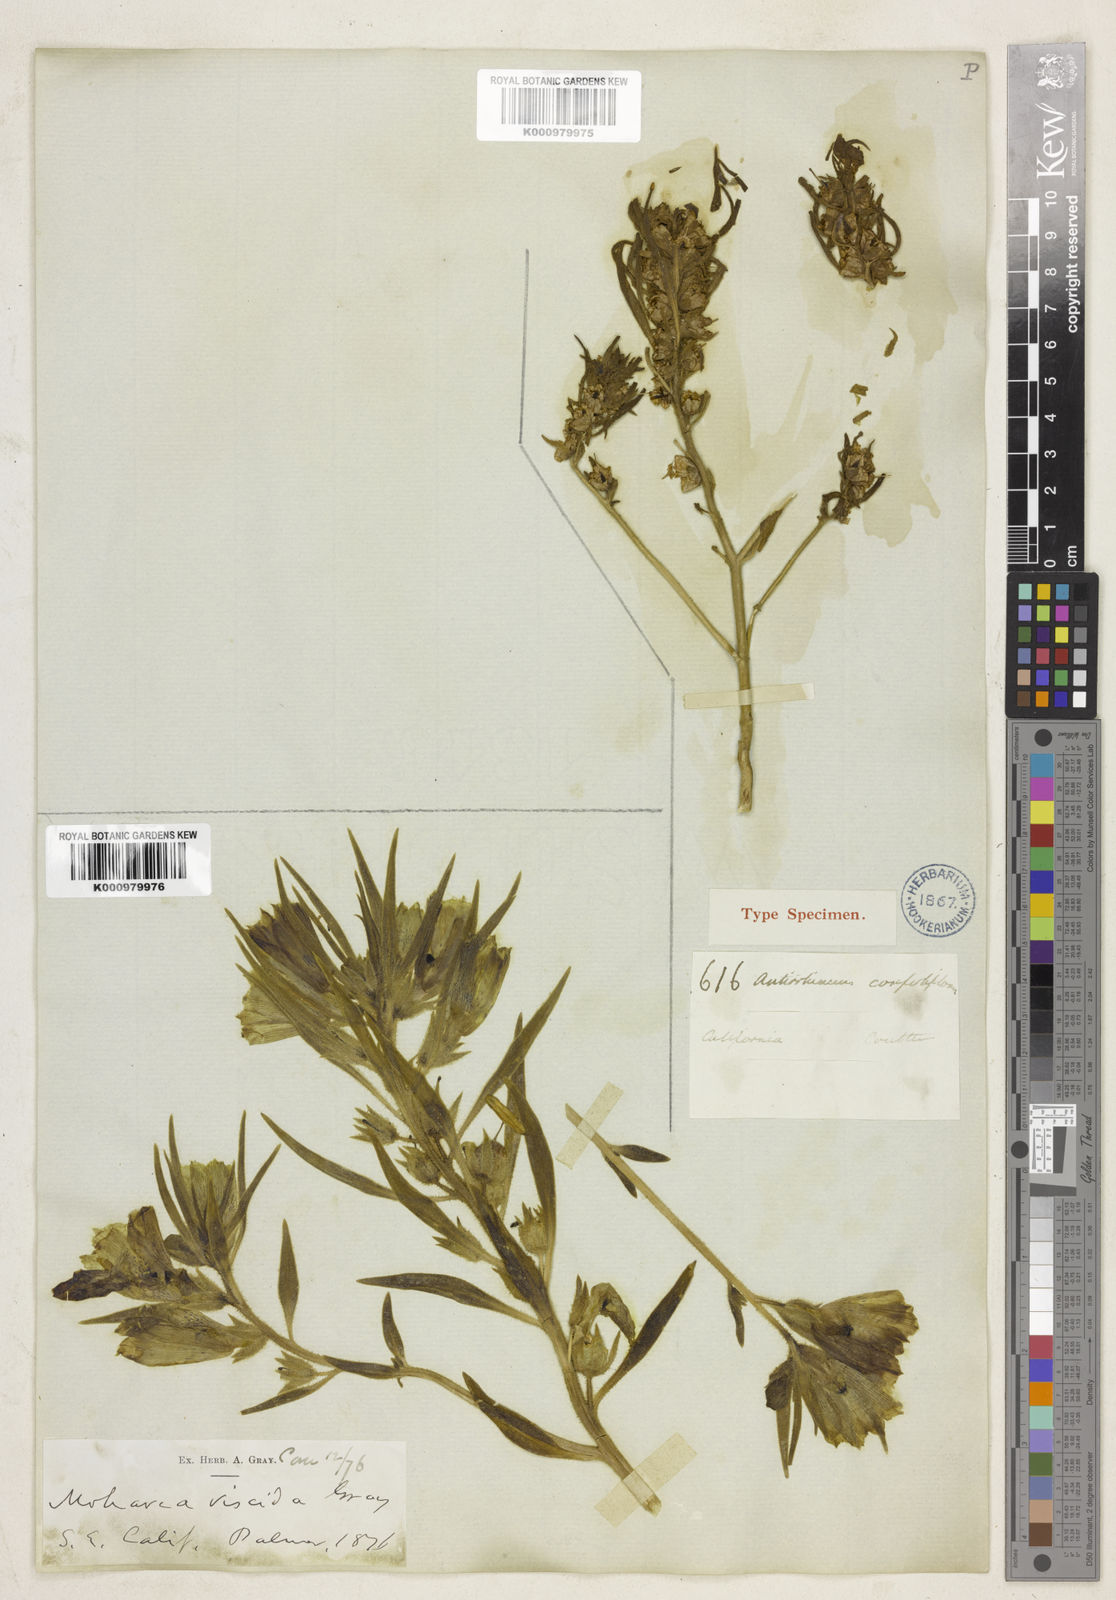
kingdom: Plantae
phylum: Tracheophyta
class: Magnoliopsida
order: Lamiales
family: Plantaginaceae
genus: Schweinfurthia
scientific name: Schweinfurthia
